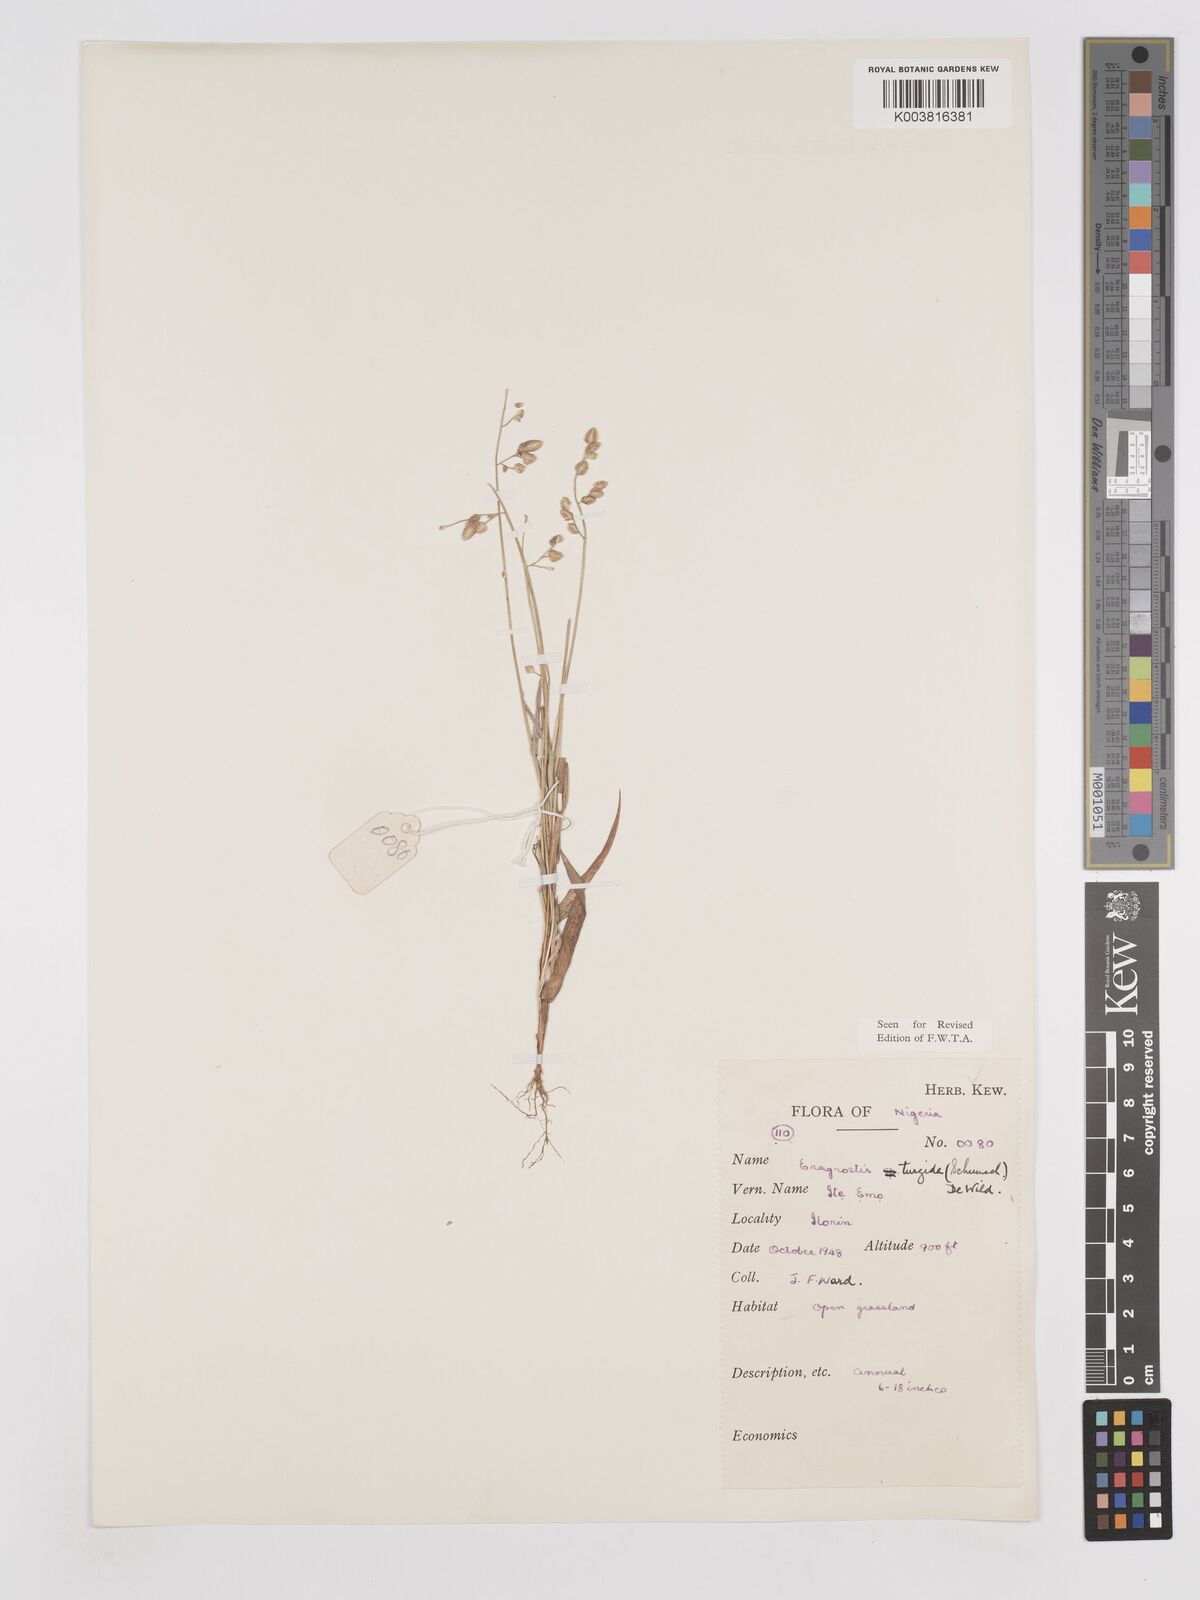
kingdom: Plantae
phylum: Tracheophyta
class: Liliopsida
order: Poales
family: Poaceae
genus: Eragrostis
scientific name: Eragrostis turgida
